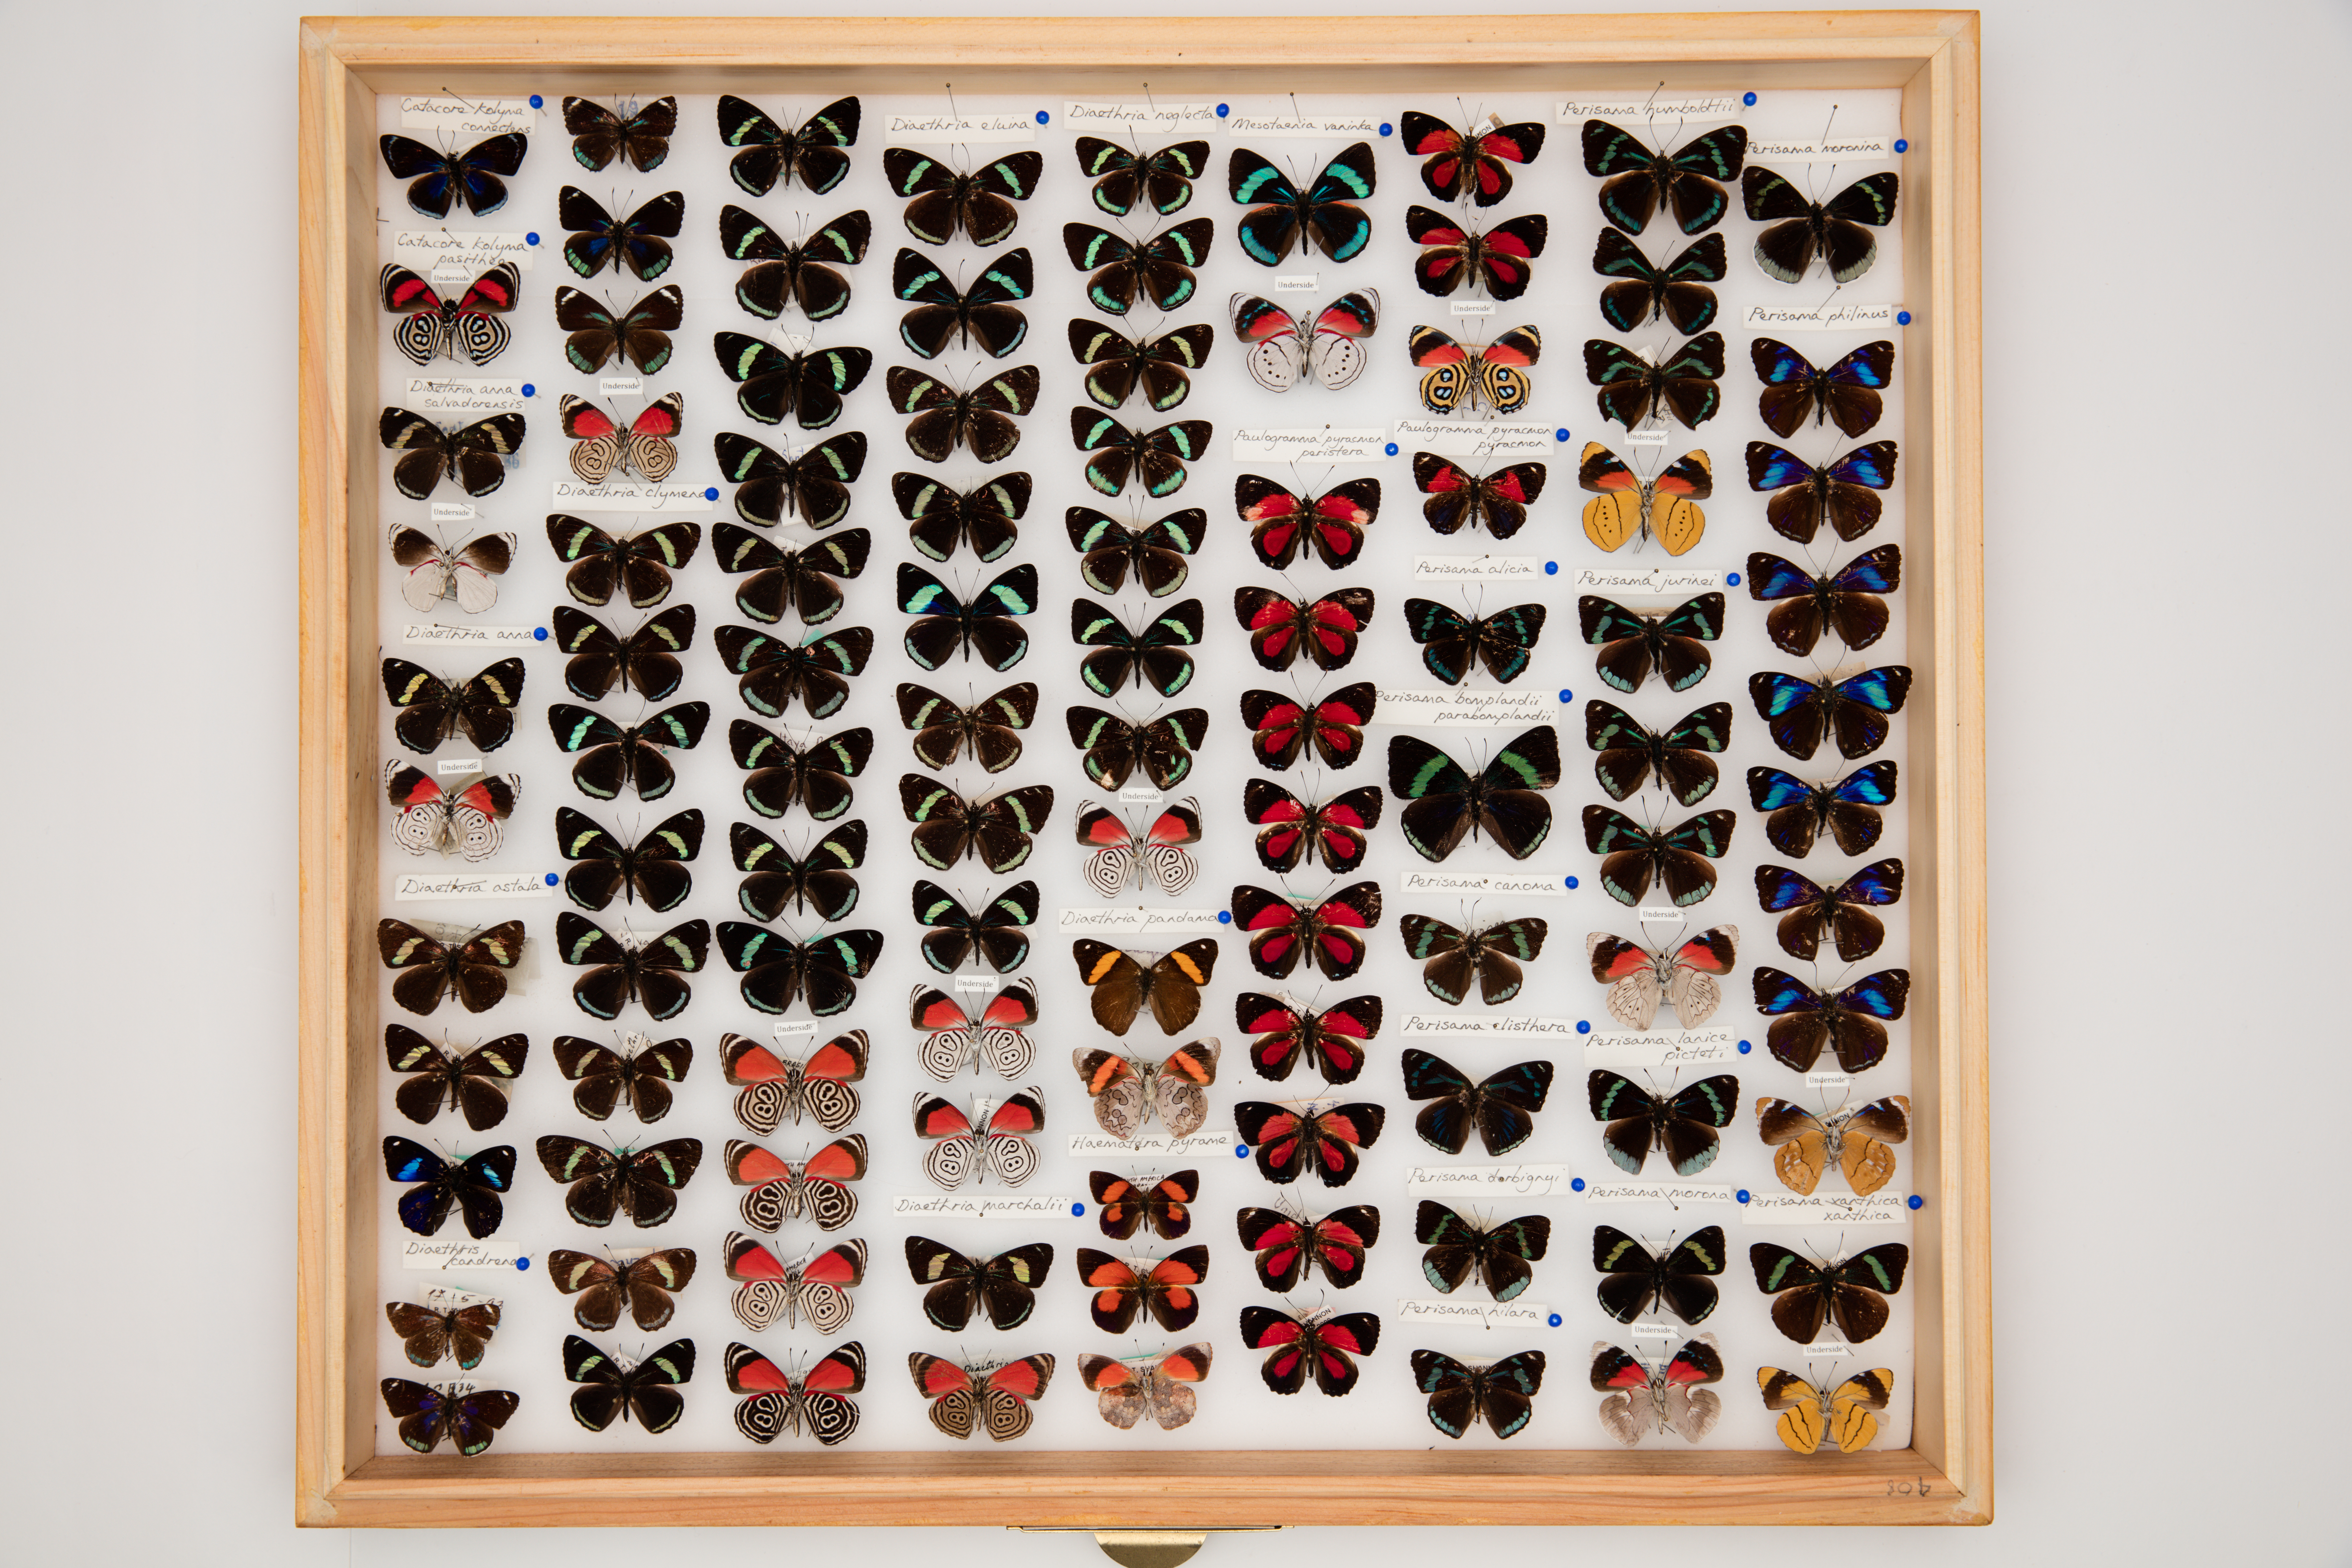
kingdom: Animalia
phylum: Arthropoda
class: Insecta
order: Lepidoptera
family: Nymphalidae
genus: Perisama
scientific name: Perisama humboldtii
